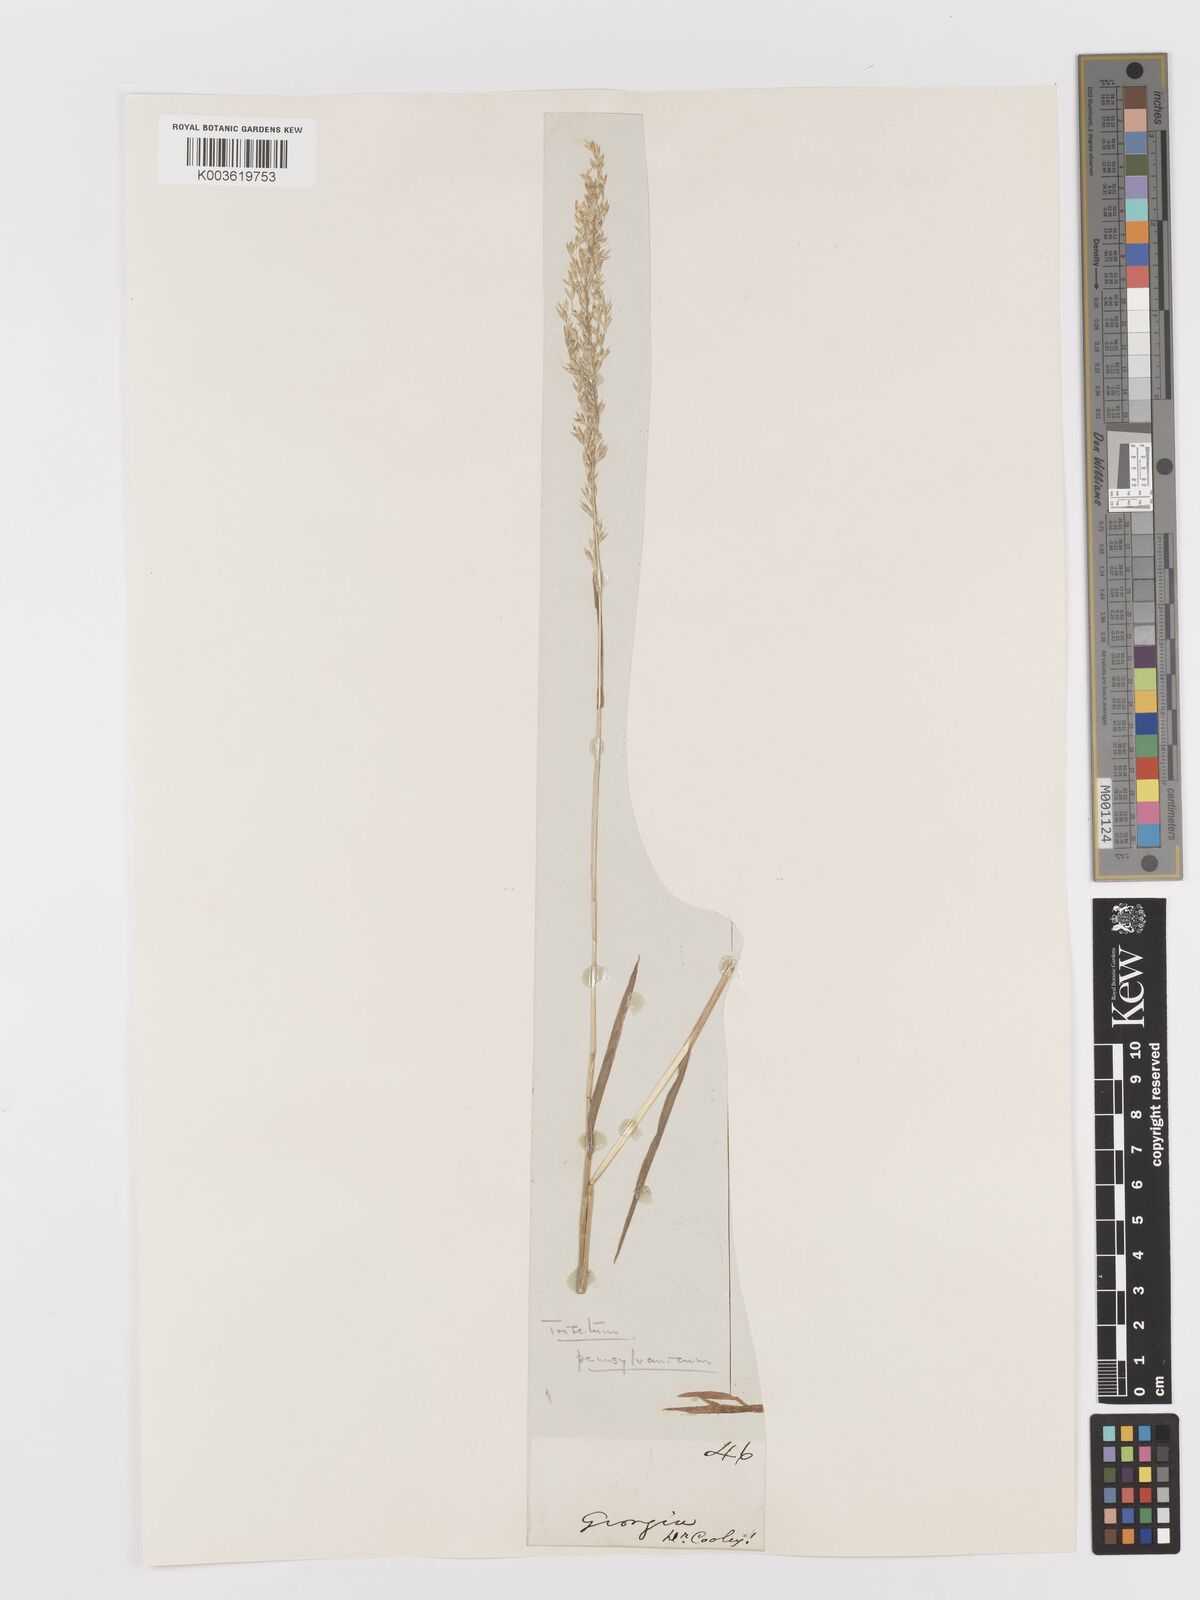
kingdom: Plantae
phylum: Tracheophyta
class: Liliopsida
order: Poales
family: Poaceae
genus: Sphenopholis
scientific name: Sphenopholis pensylvanica
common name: Swamp oats
